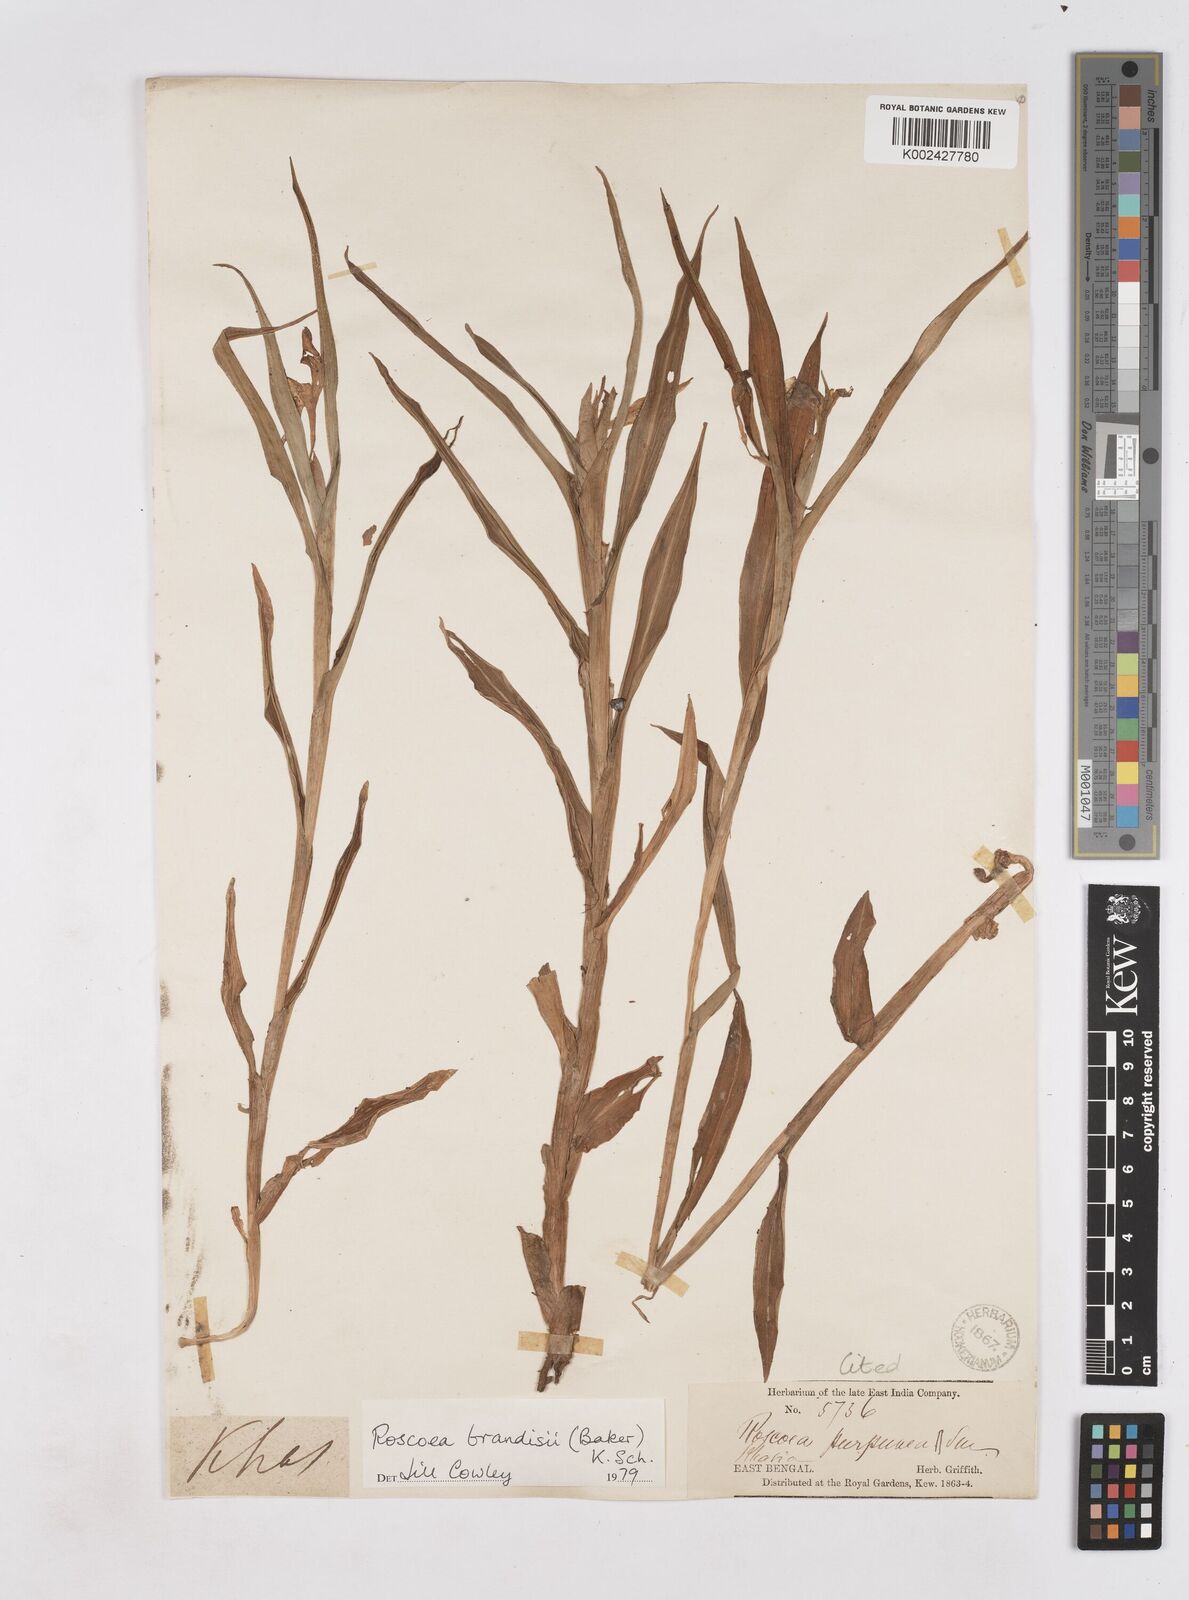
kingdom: Plantae
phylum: Tracheophyta
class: Liliopsida
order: Zingiberales
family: Zingiberaceae
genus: Roscoea
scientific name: Roscoea brandisii
